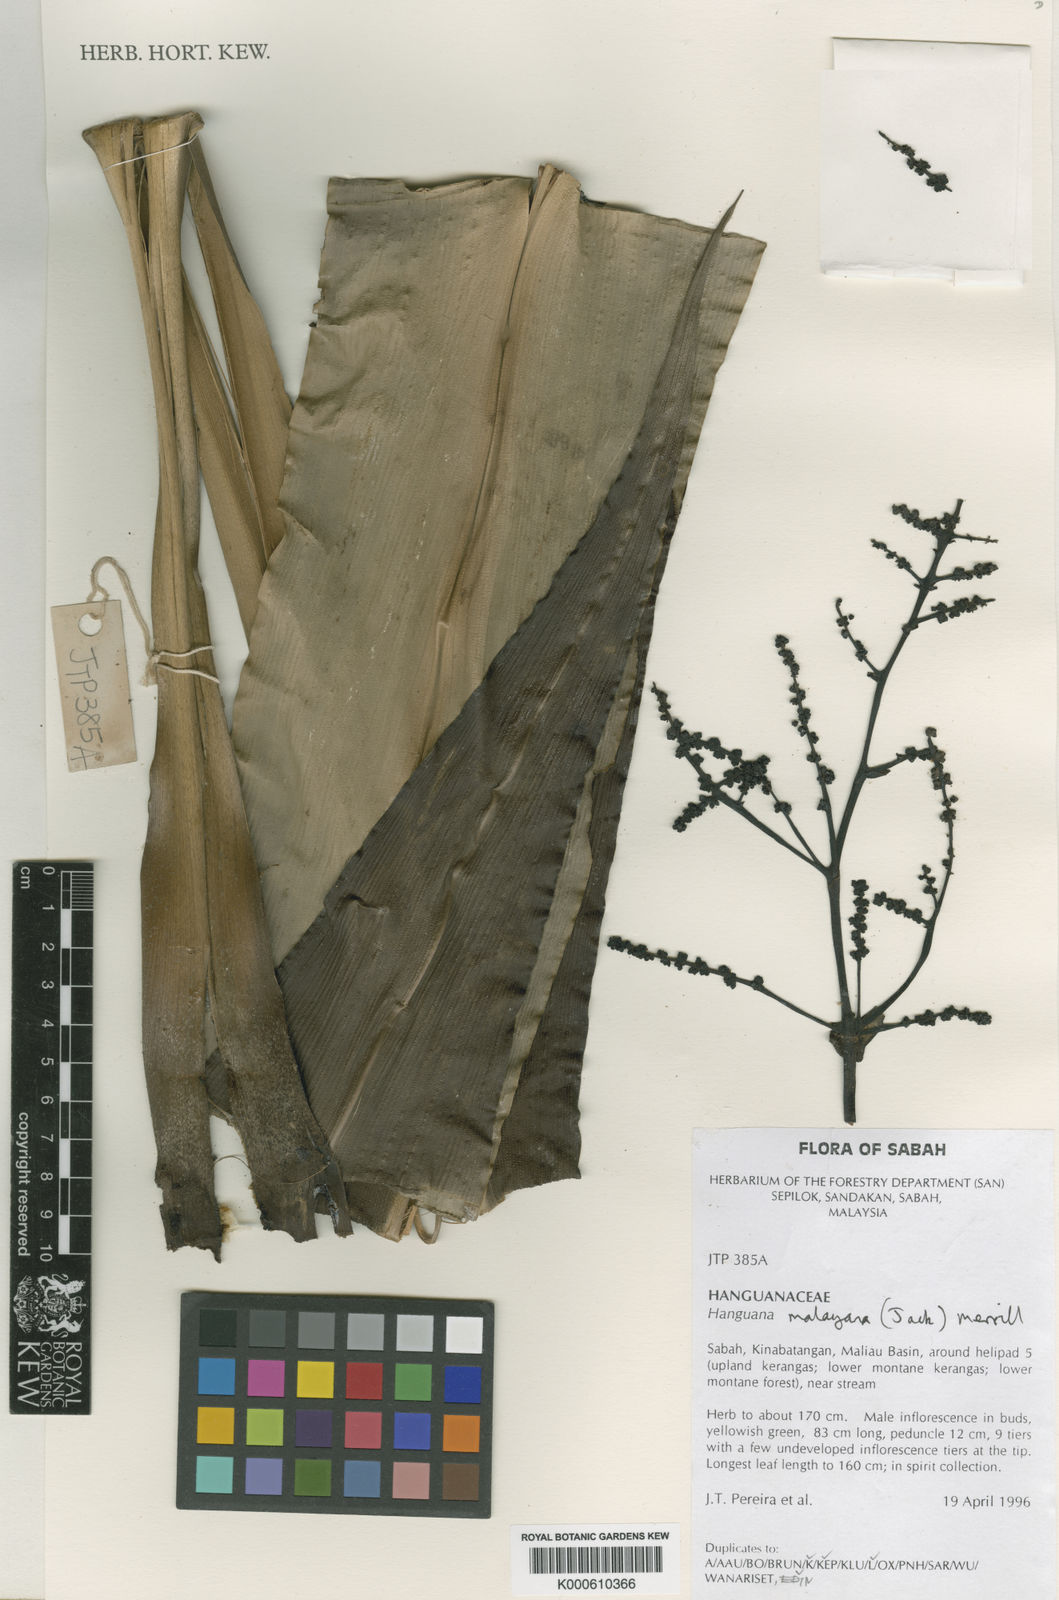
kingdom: Plantae
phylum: Tracheophyta
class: Liliopsida
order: Commelinales
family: Hanguanaceae
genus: Hanguana
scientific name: Hanguana malayana
